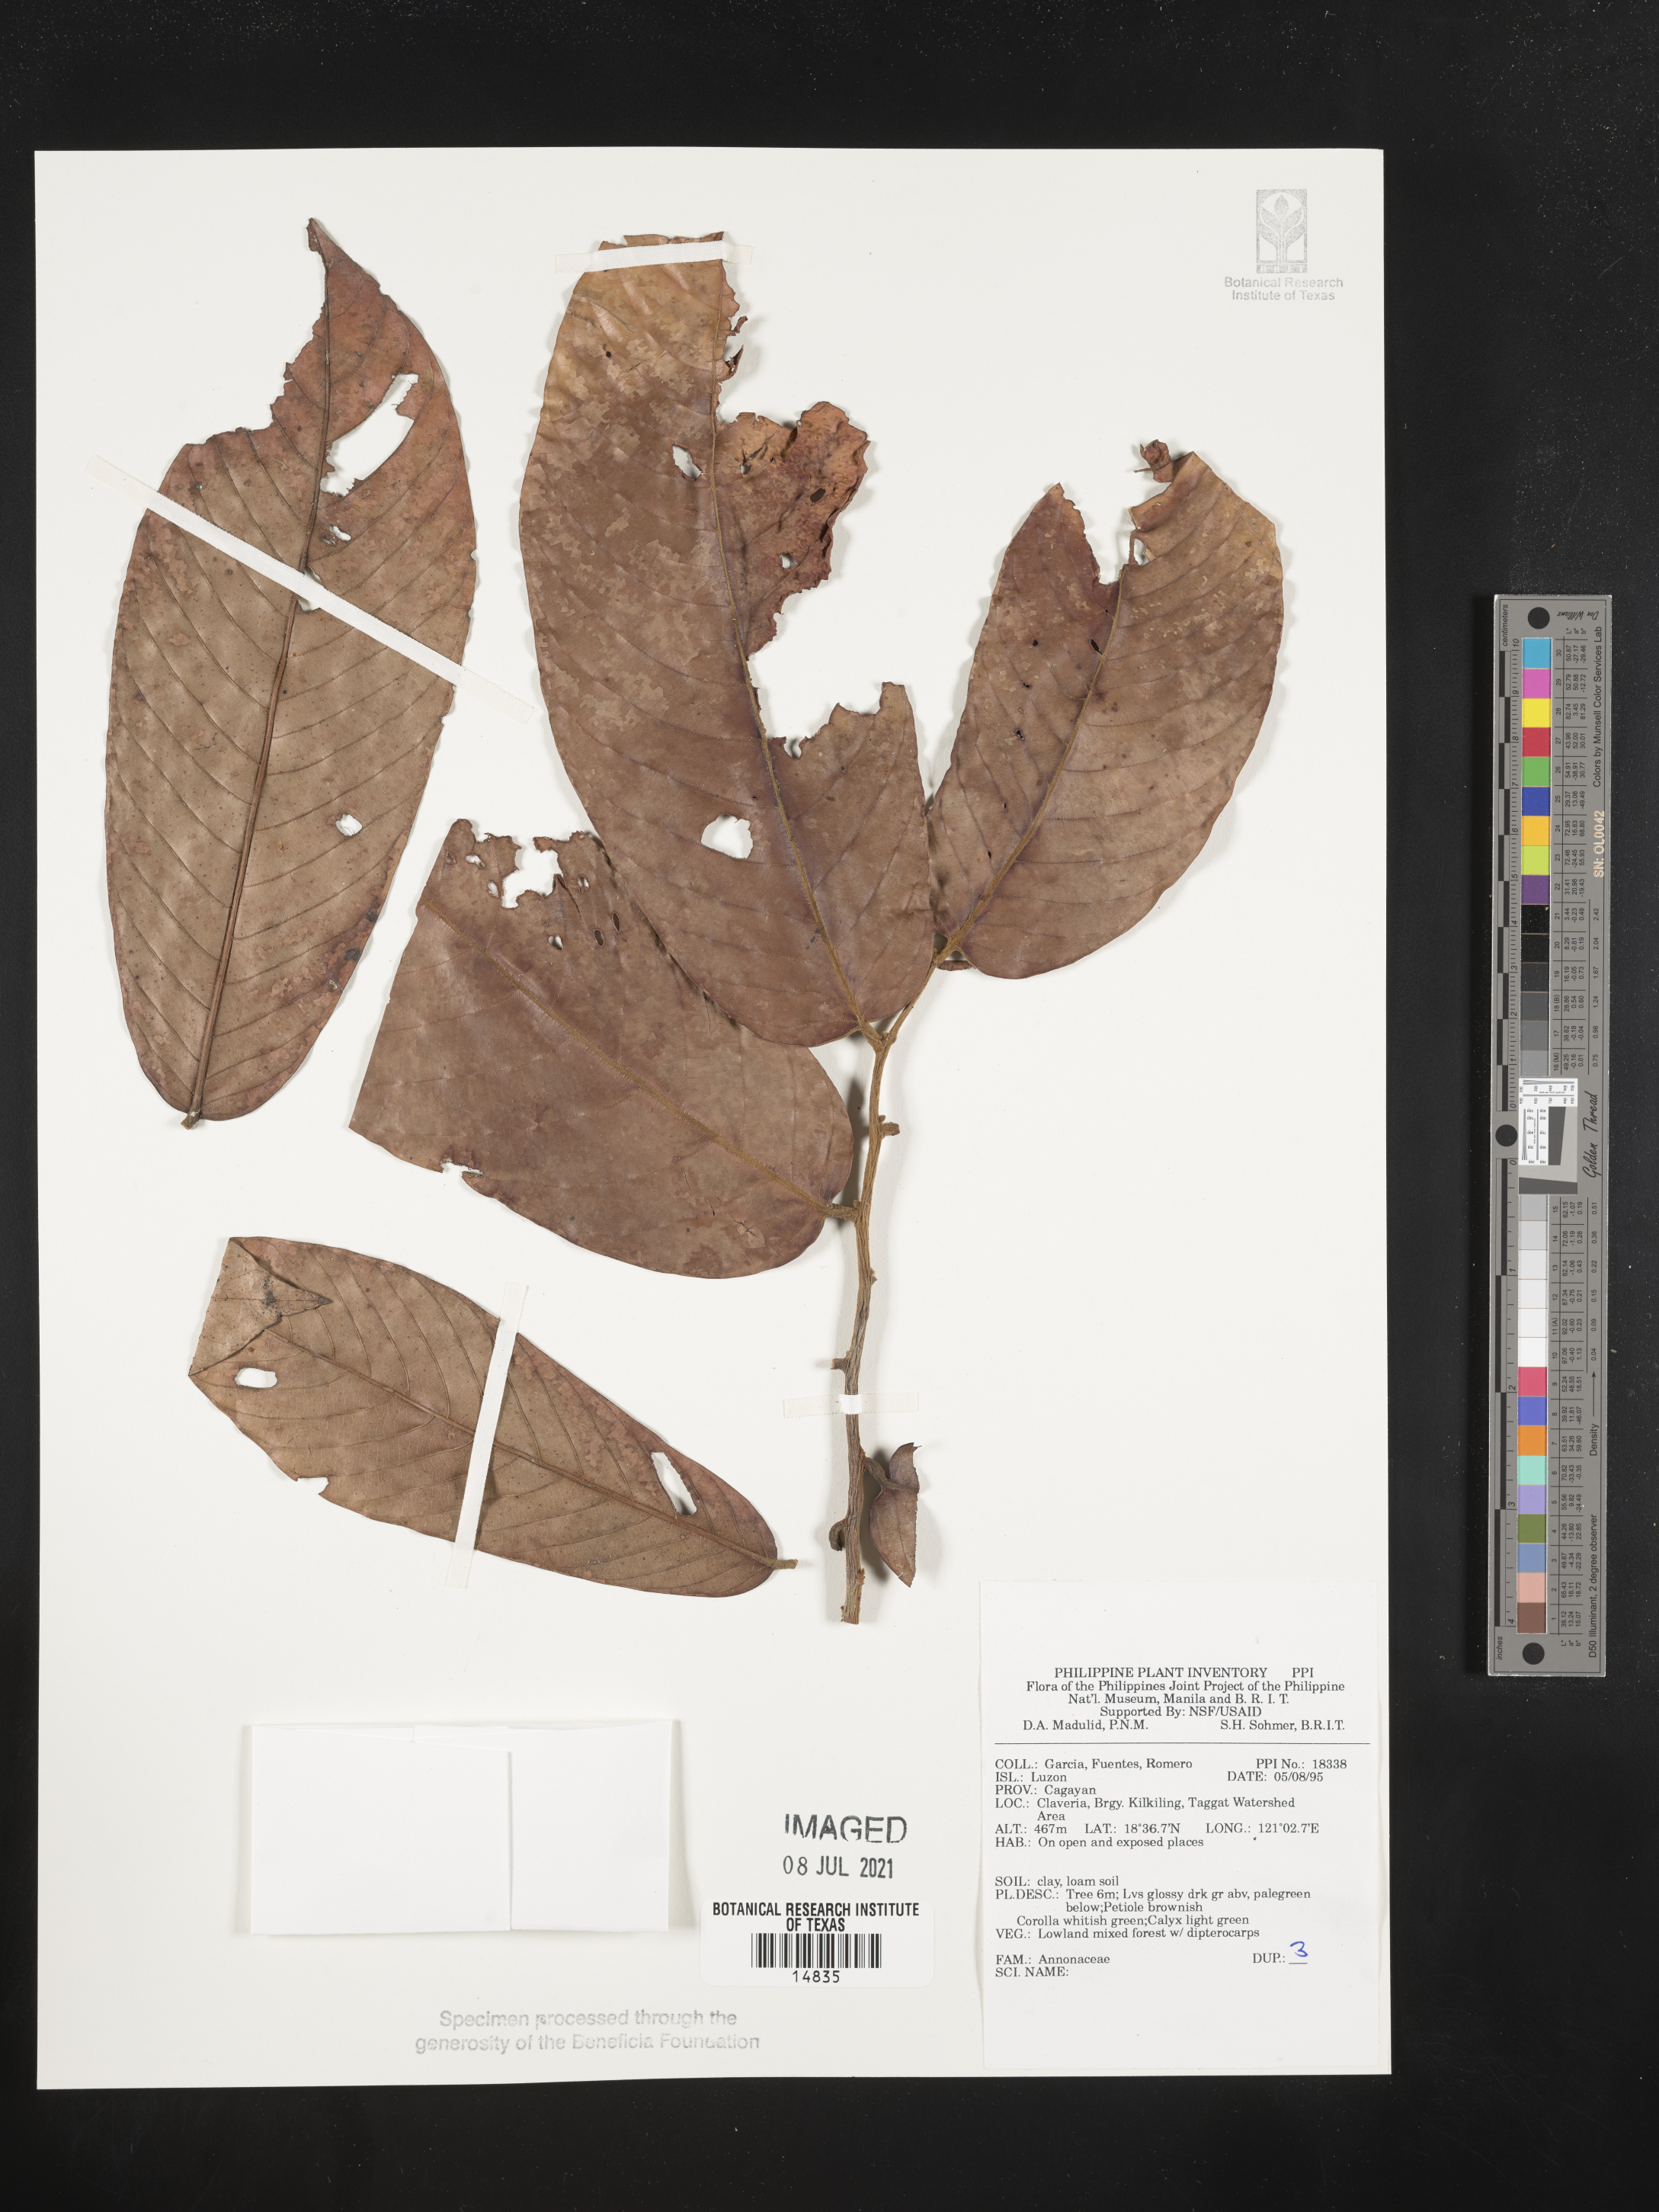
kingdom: Plantae
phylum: Tracheophyta
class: Magnoliopsida
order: Magnoliales
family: Annonaceae
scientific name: Annonaceae
